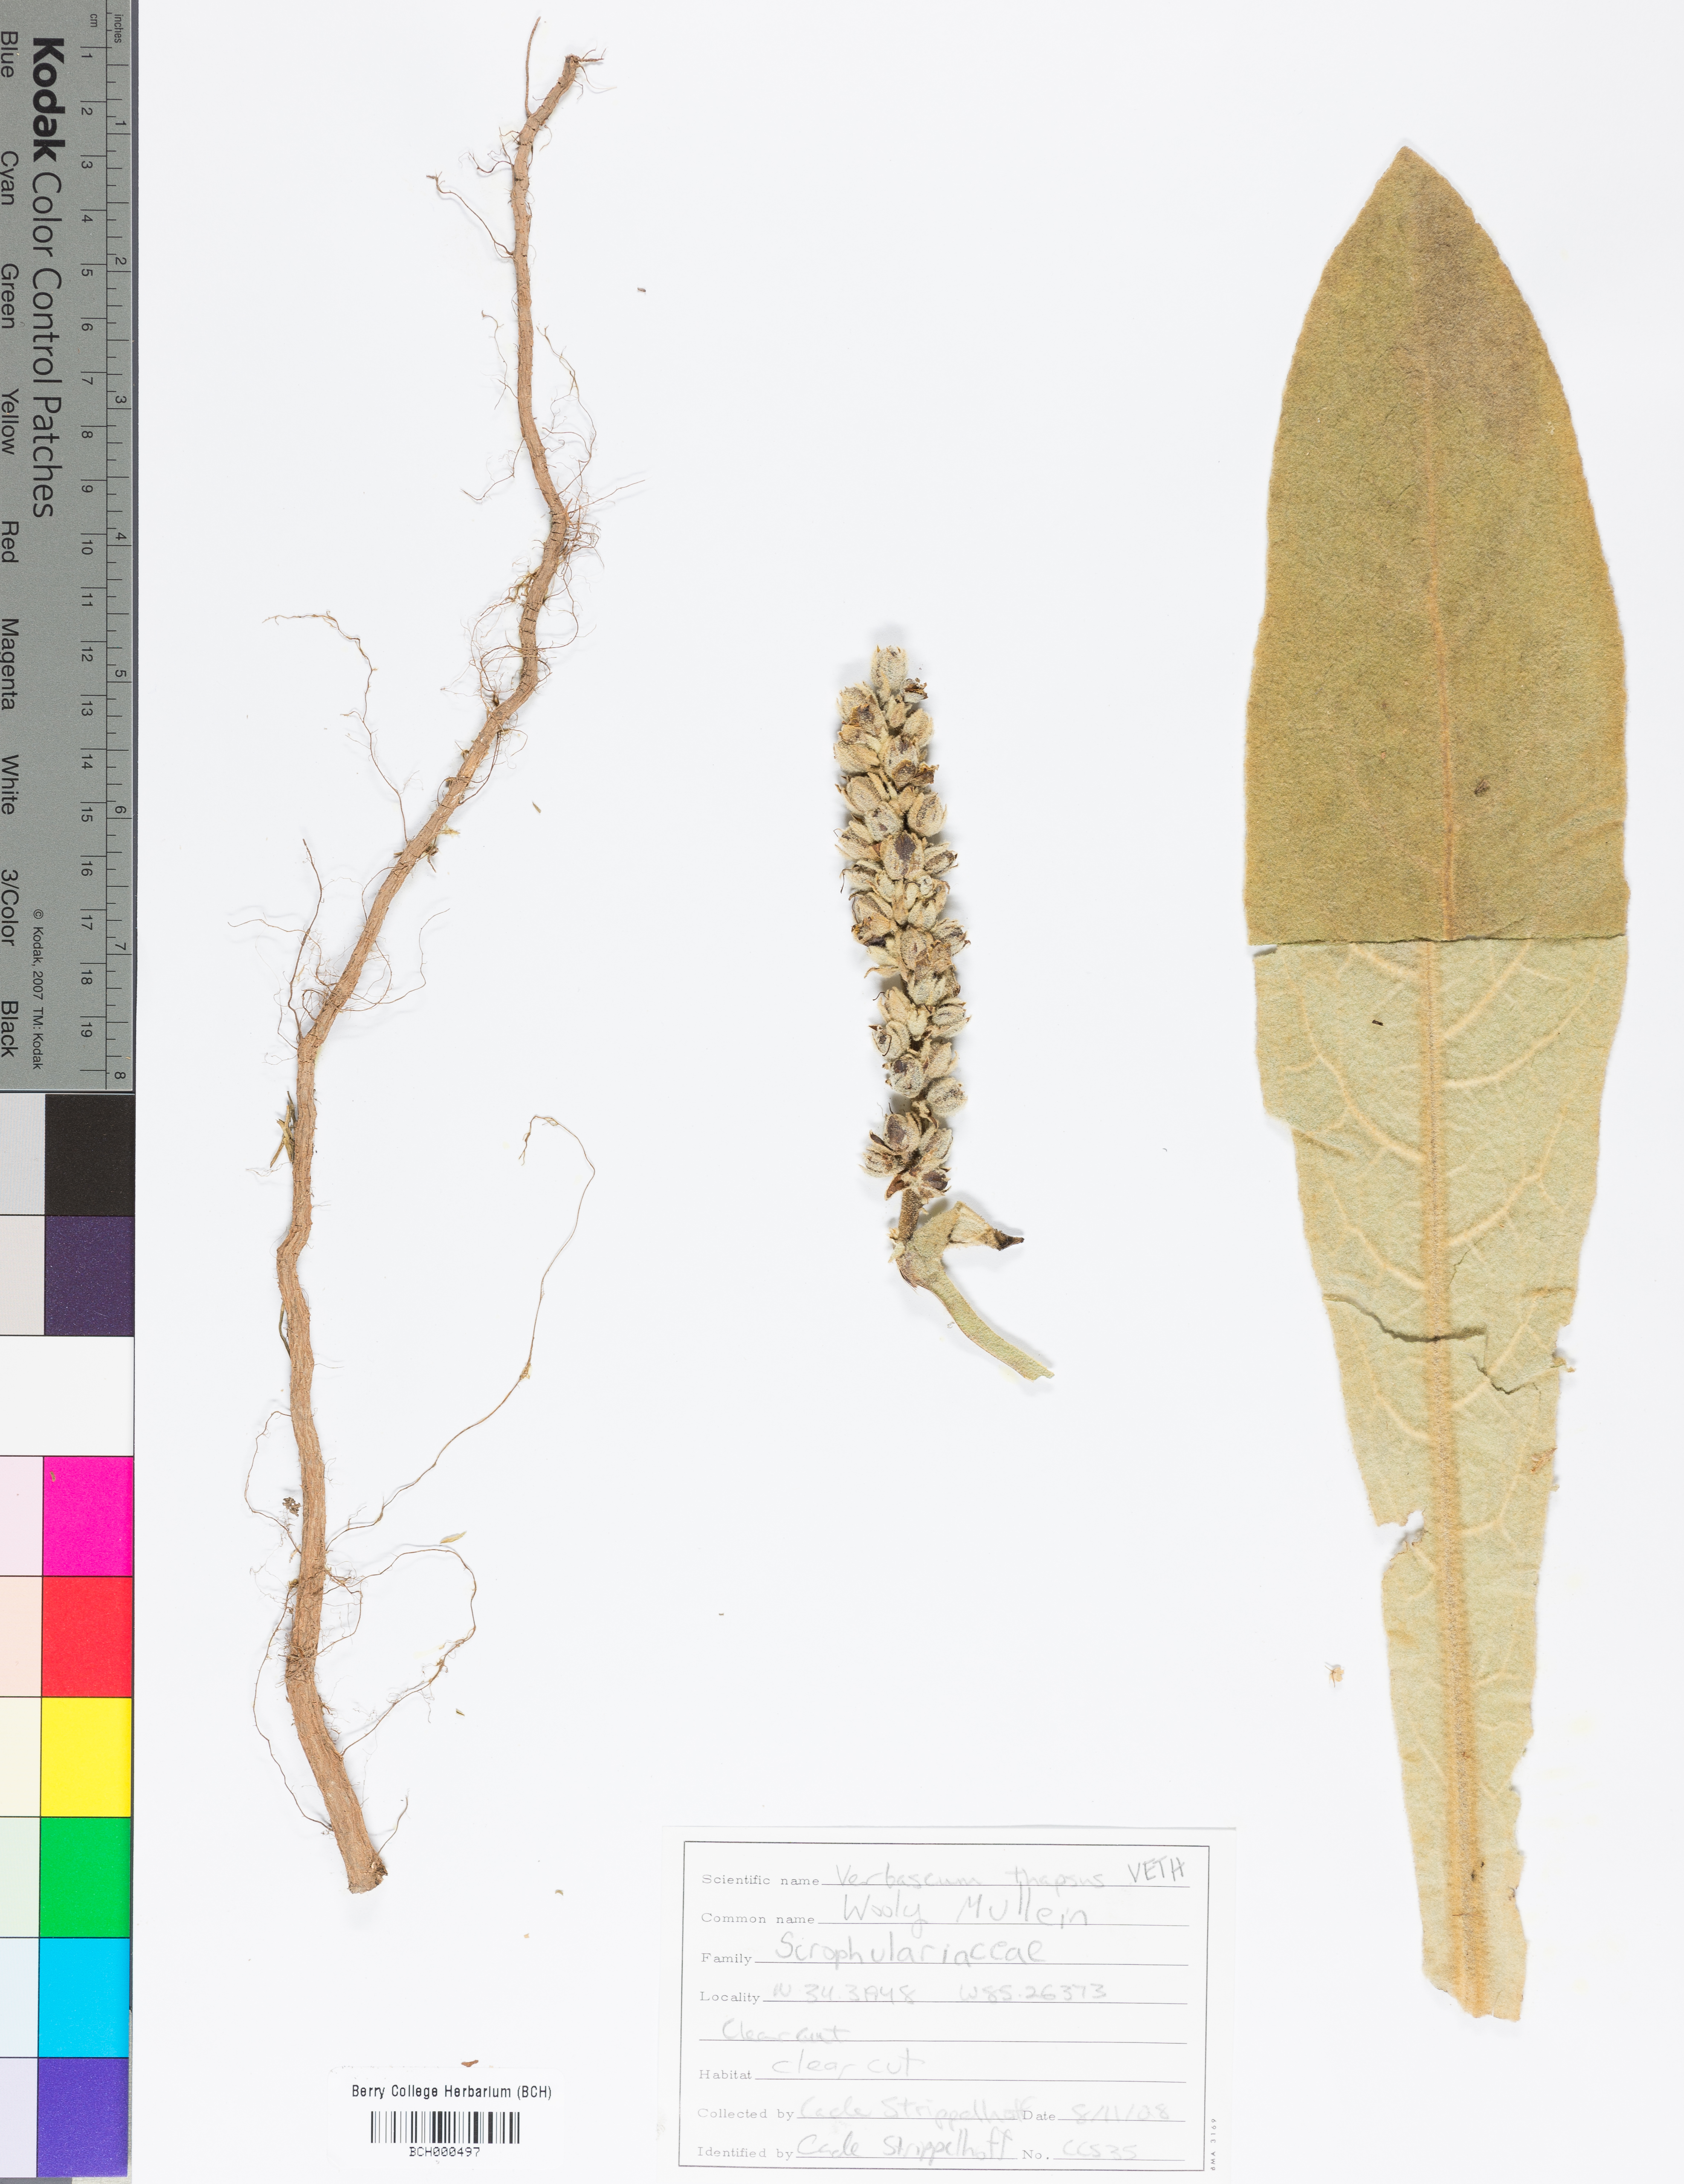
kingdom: Plantae
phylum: Tracheophyta
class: Magnoliopsida
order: Lamiales
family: Scrophulariaceae
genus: Verbascum
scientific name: Verbascum thapsus
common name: Common mullein
